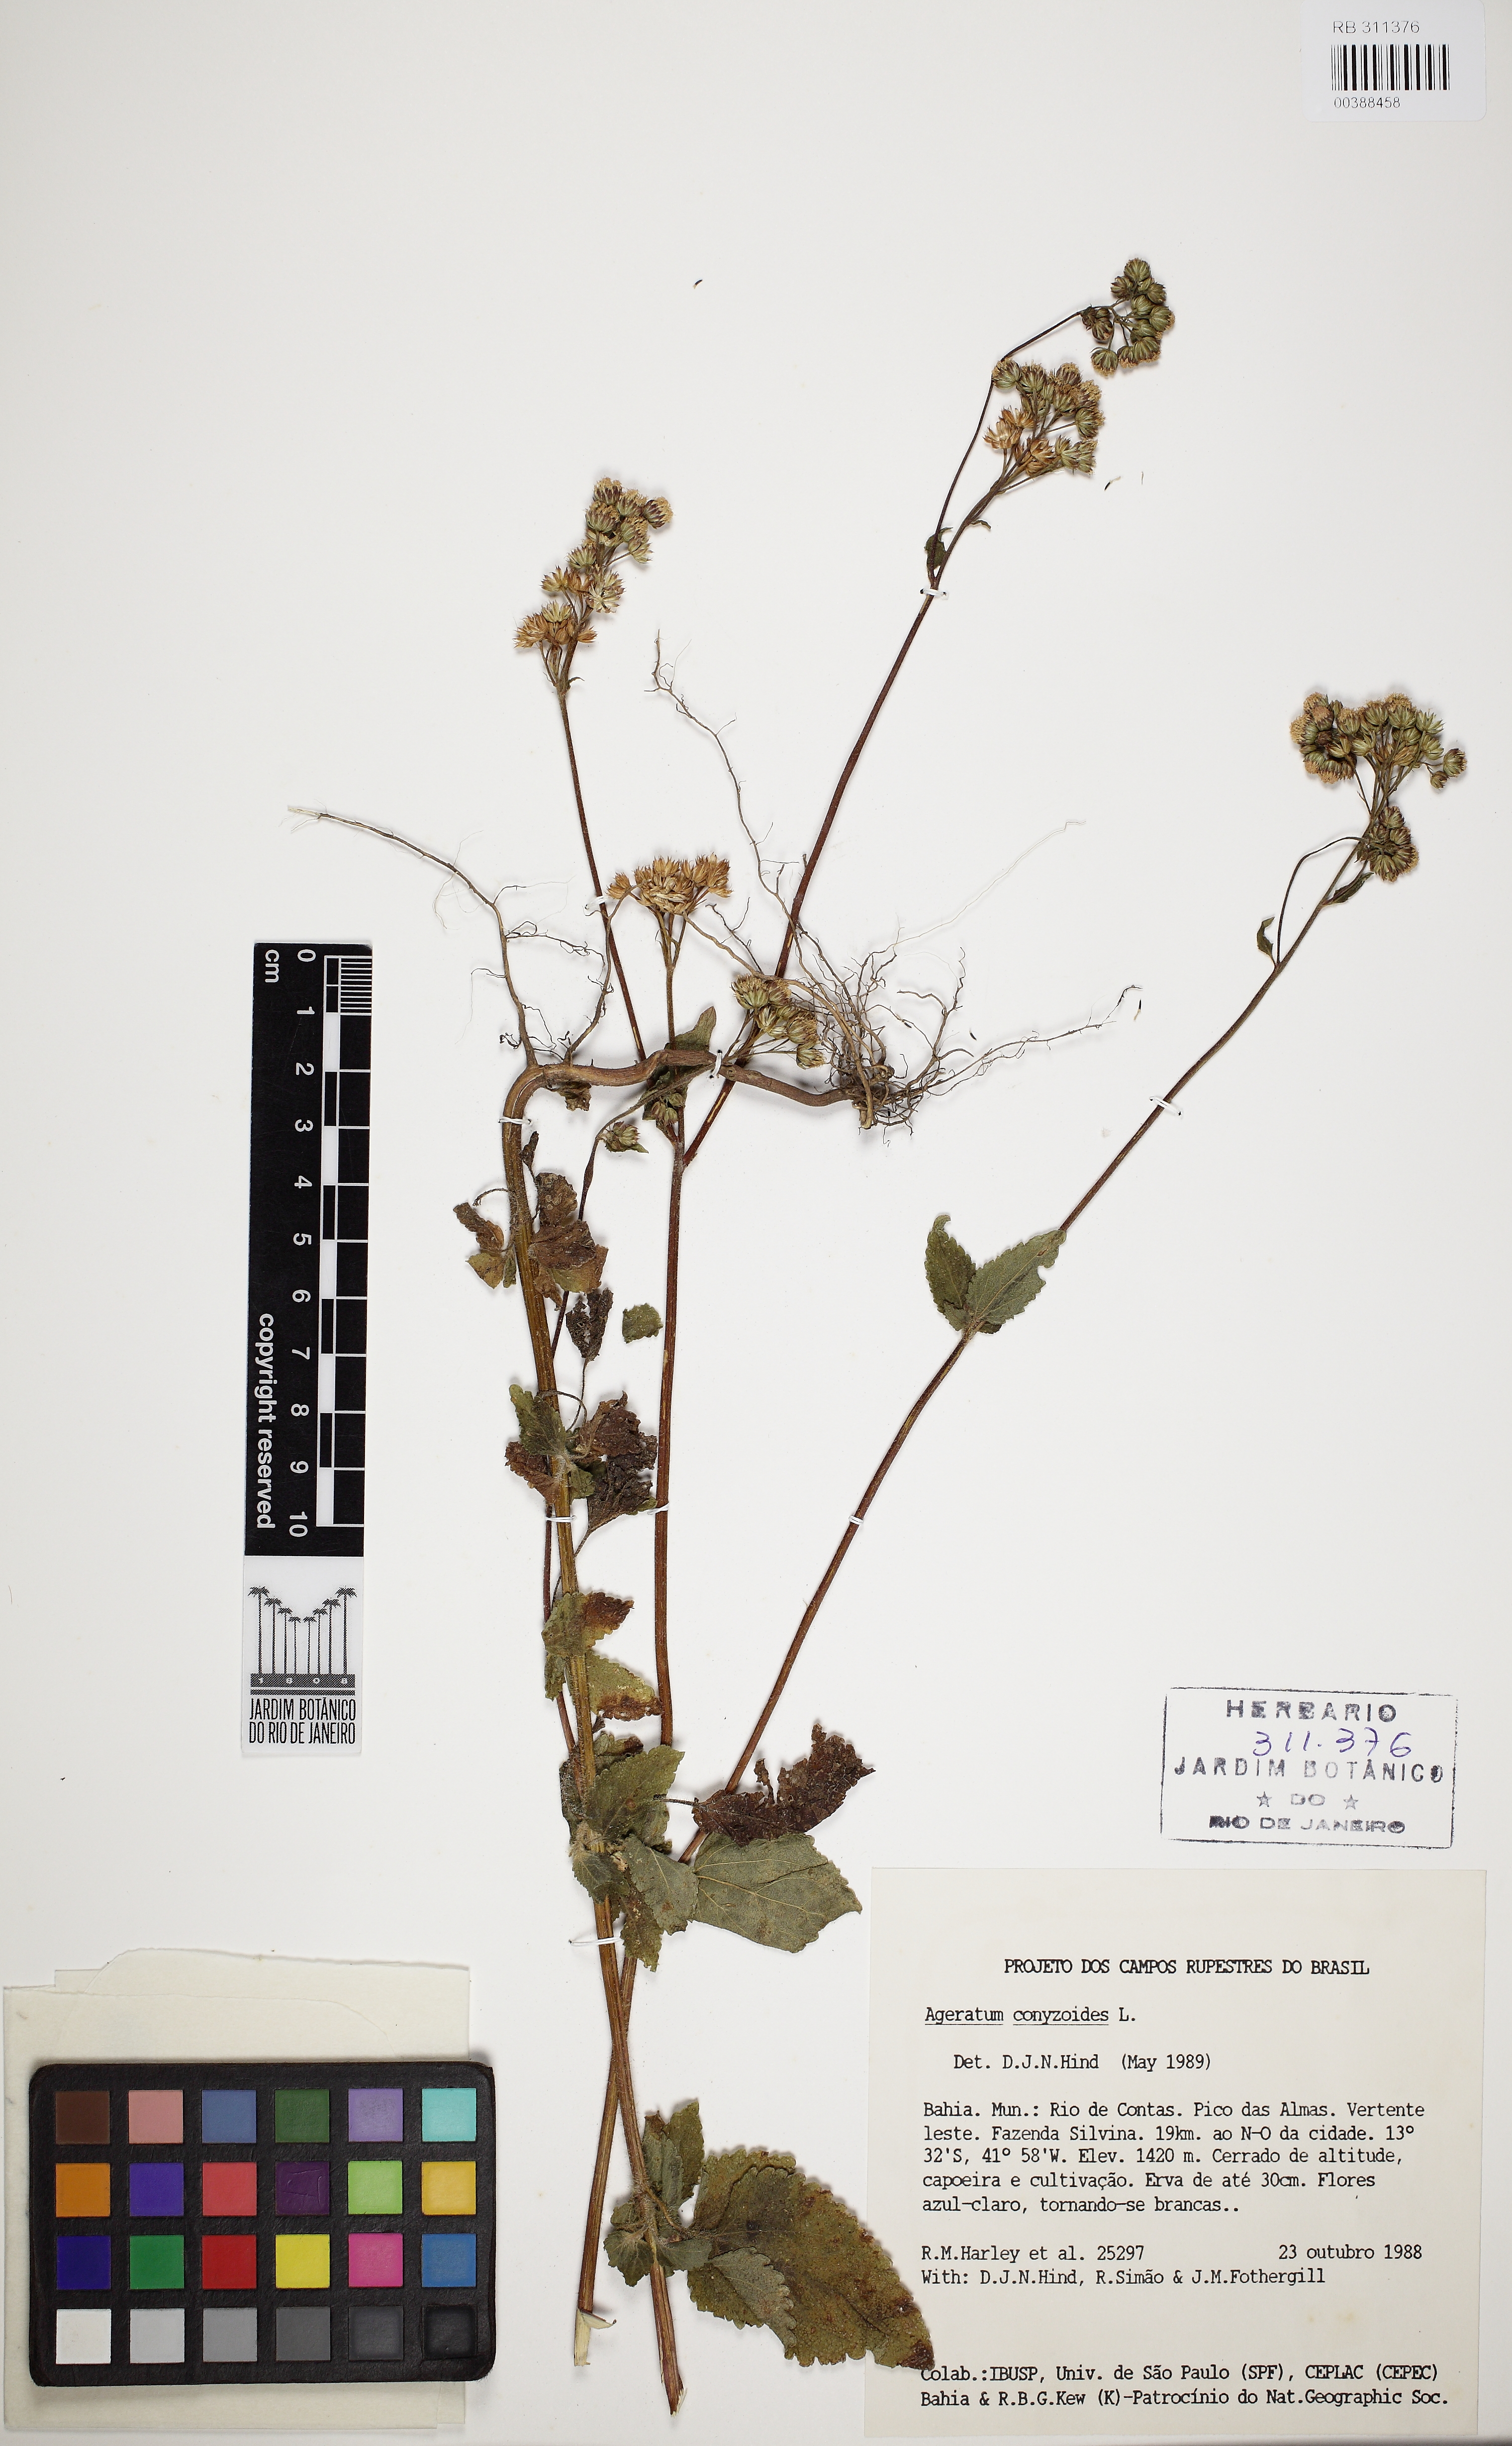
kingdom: Plantae
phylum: Tracheophyta
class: Magnoliopsida
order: Asterales
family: Asteraceae
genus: Ageratum
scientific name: Ageratum conyzoides
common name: Tropical whiteweed
